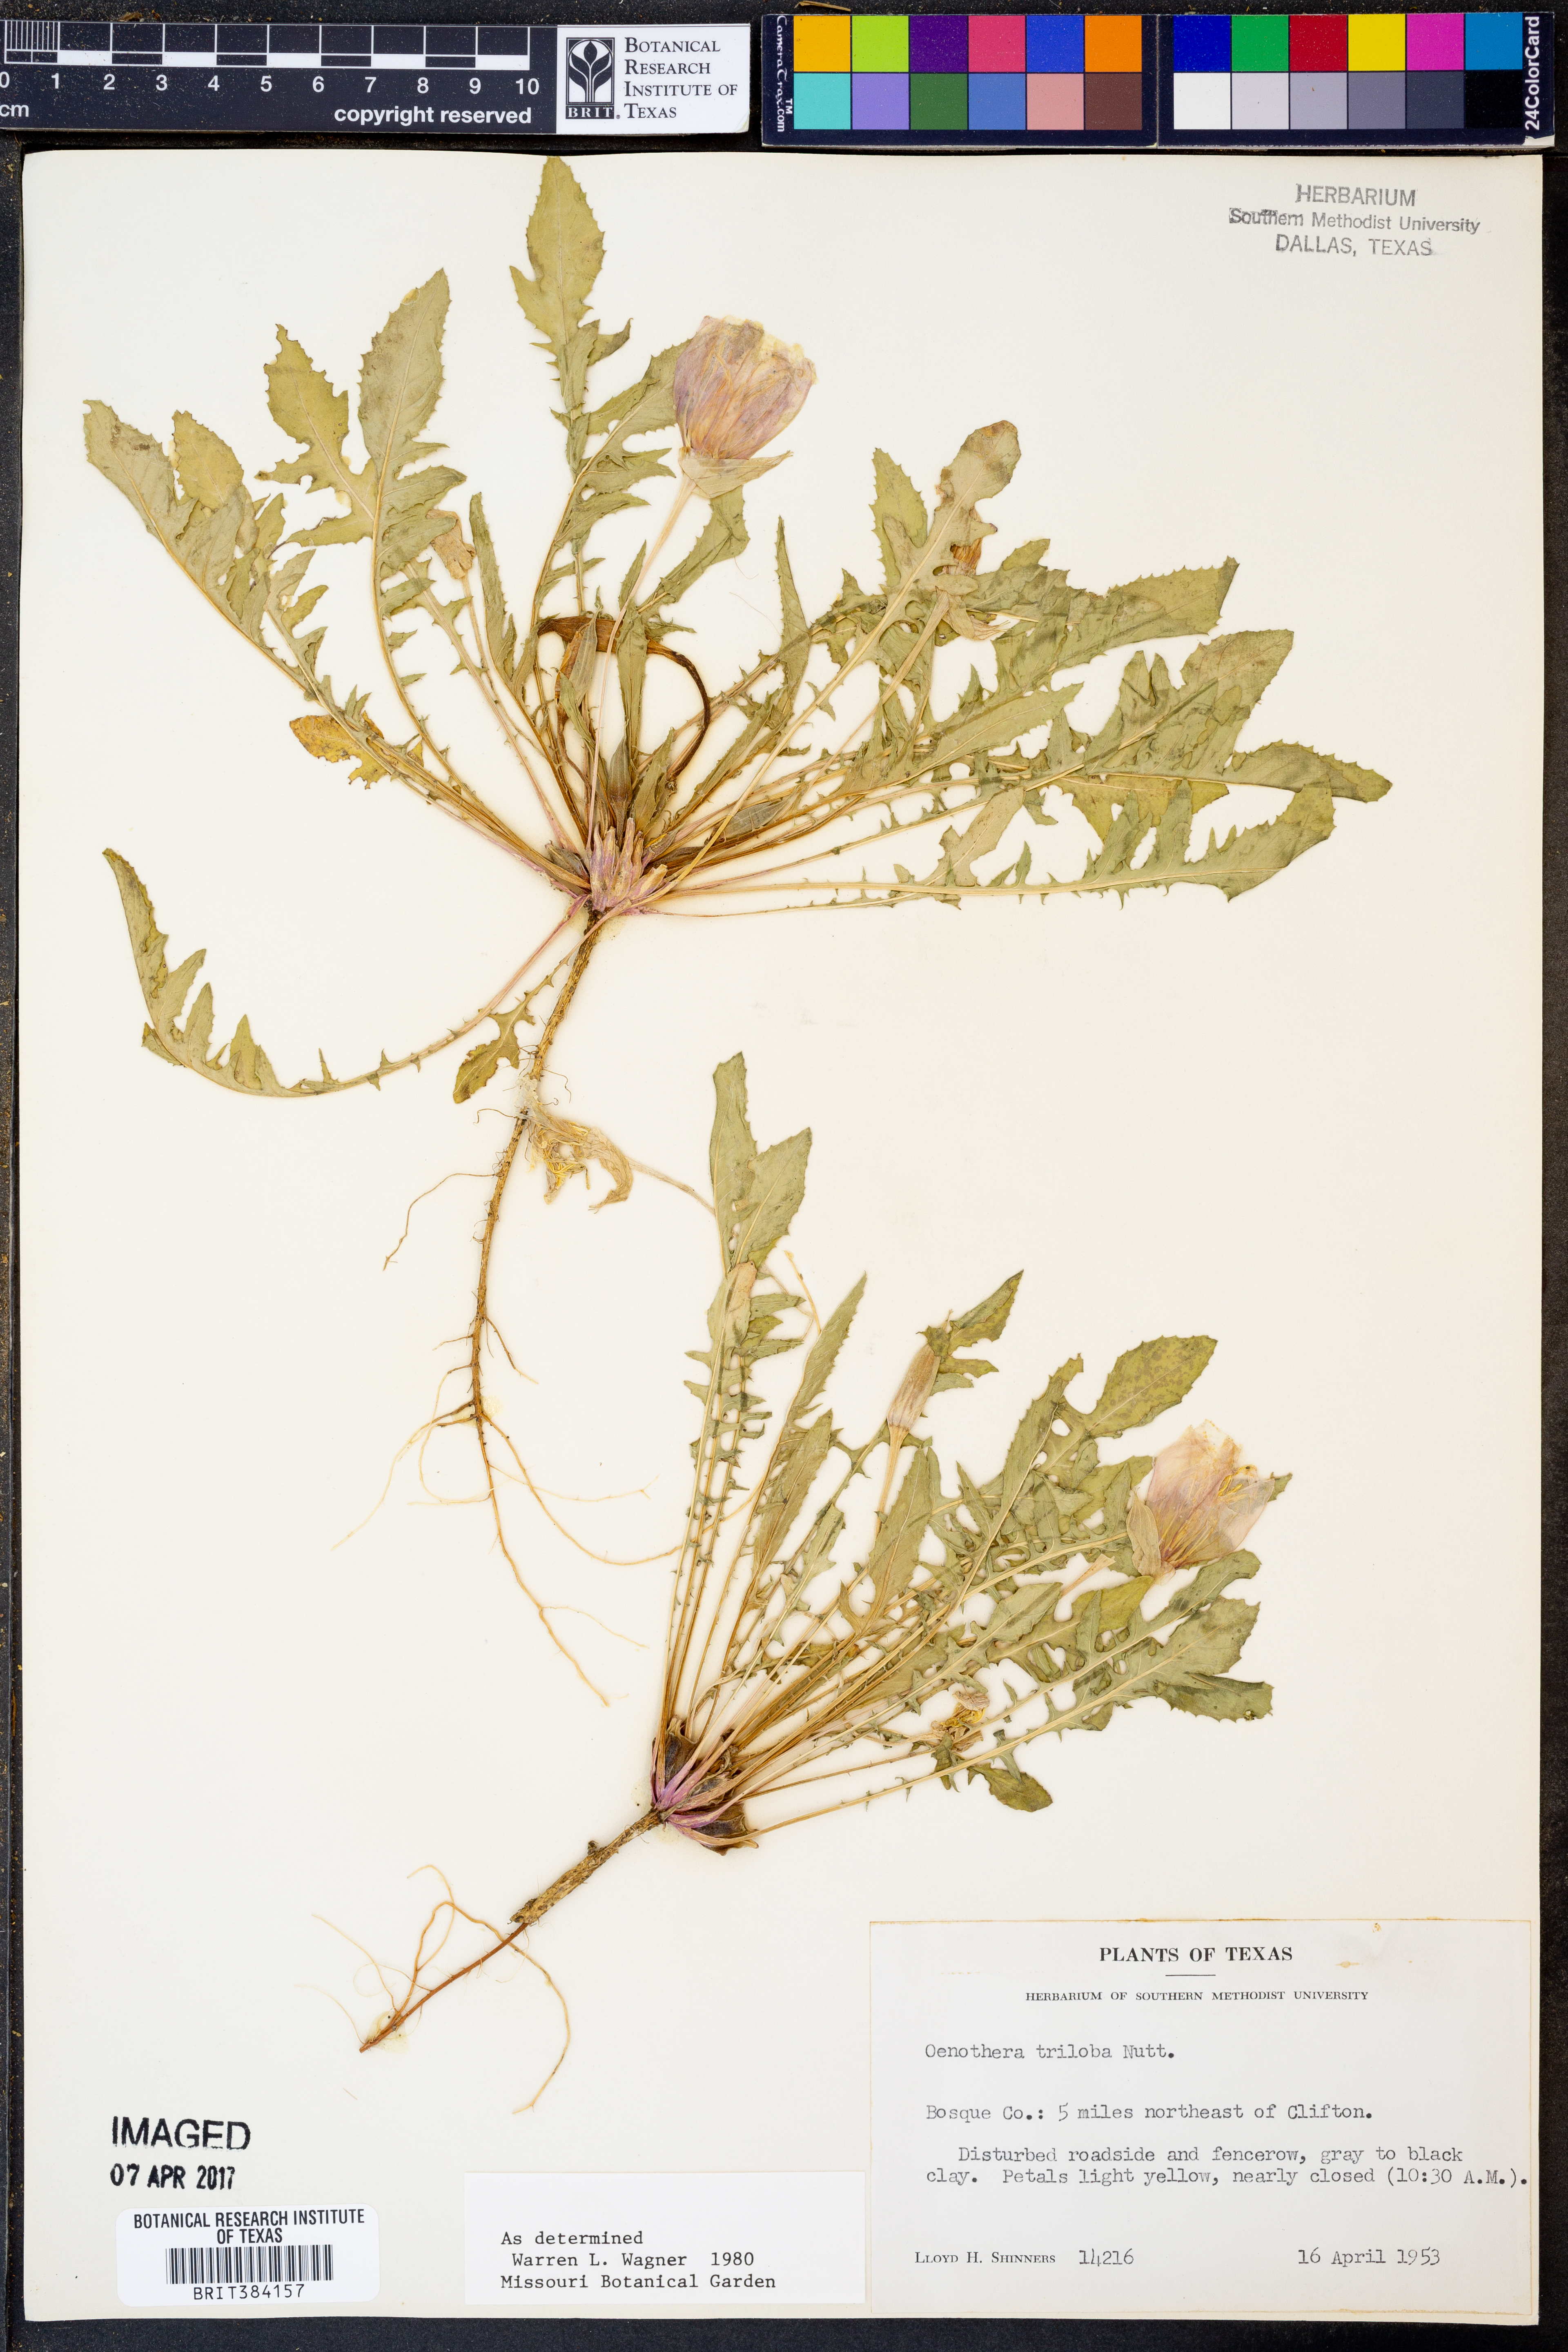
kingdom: Plantae
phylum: Tracheophyta
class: Magnoliopsida
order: Myrtales
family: Onagraceae
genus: Oenothera
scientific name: Oenothera triloba
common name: Sessile evening-primrose
